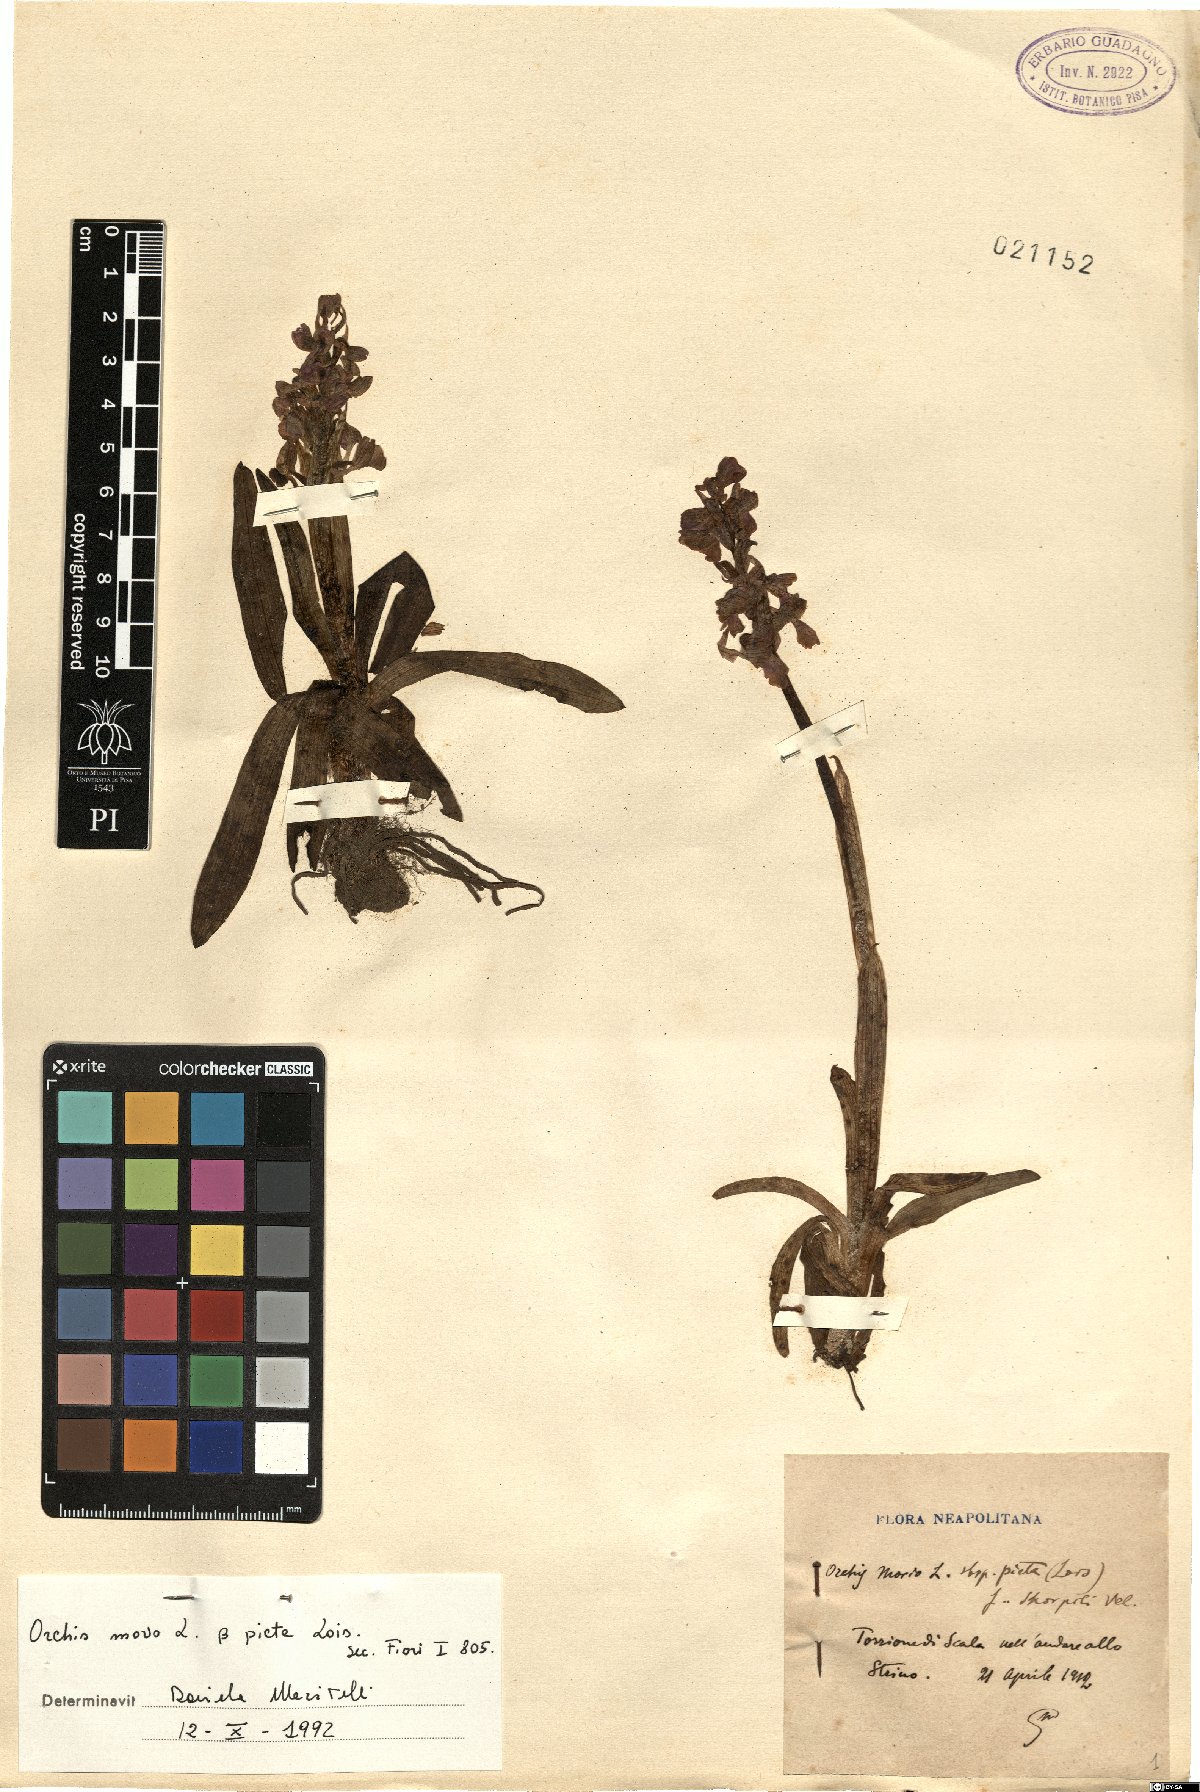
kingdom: Plantae
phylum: Tracheophyta
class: Liliopsida
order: Asparagales
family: Orchidaceae
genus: Anacamptis
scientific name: Anacamptis morio
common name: Green-winged orchid
